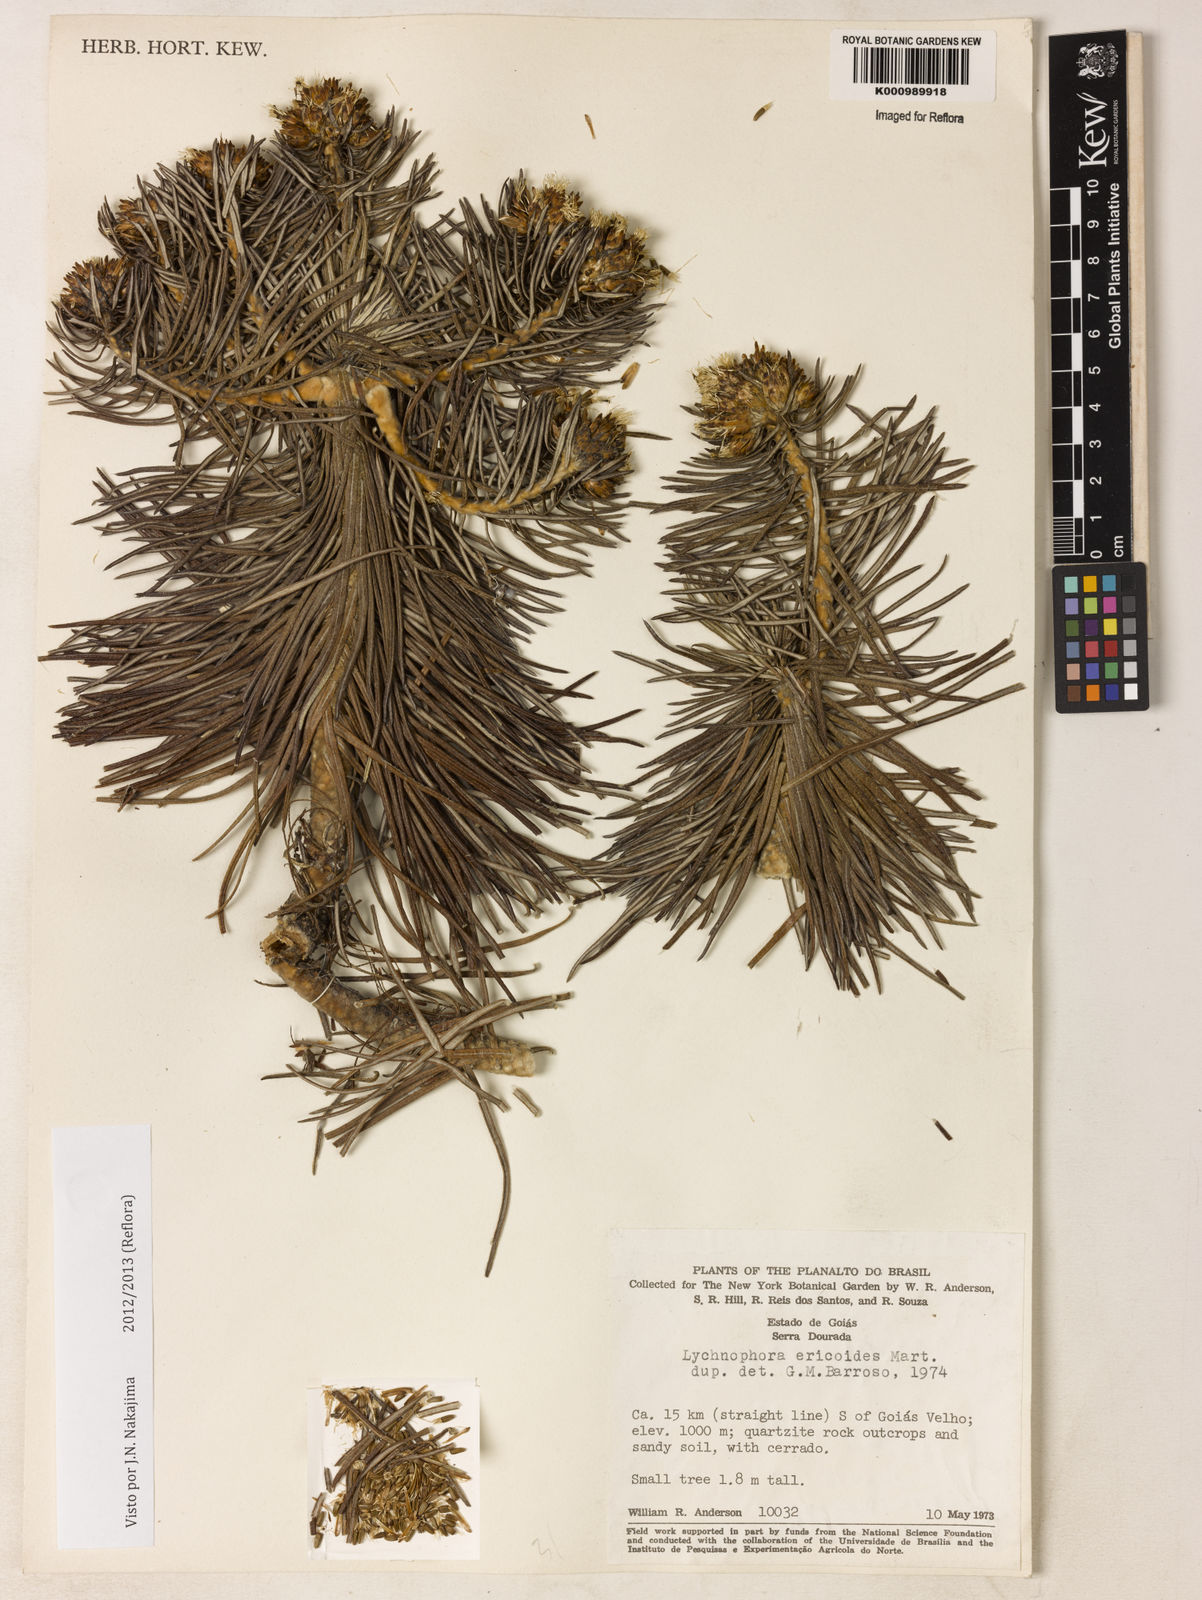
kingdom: Plantae
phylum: Tracheophyta
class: Magnoliopsida
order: Asterales
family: Asteraceae
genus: Lychnophora
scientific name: Lychnophora ericoides
